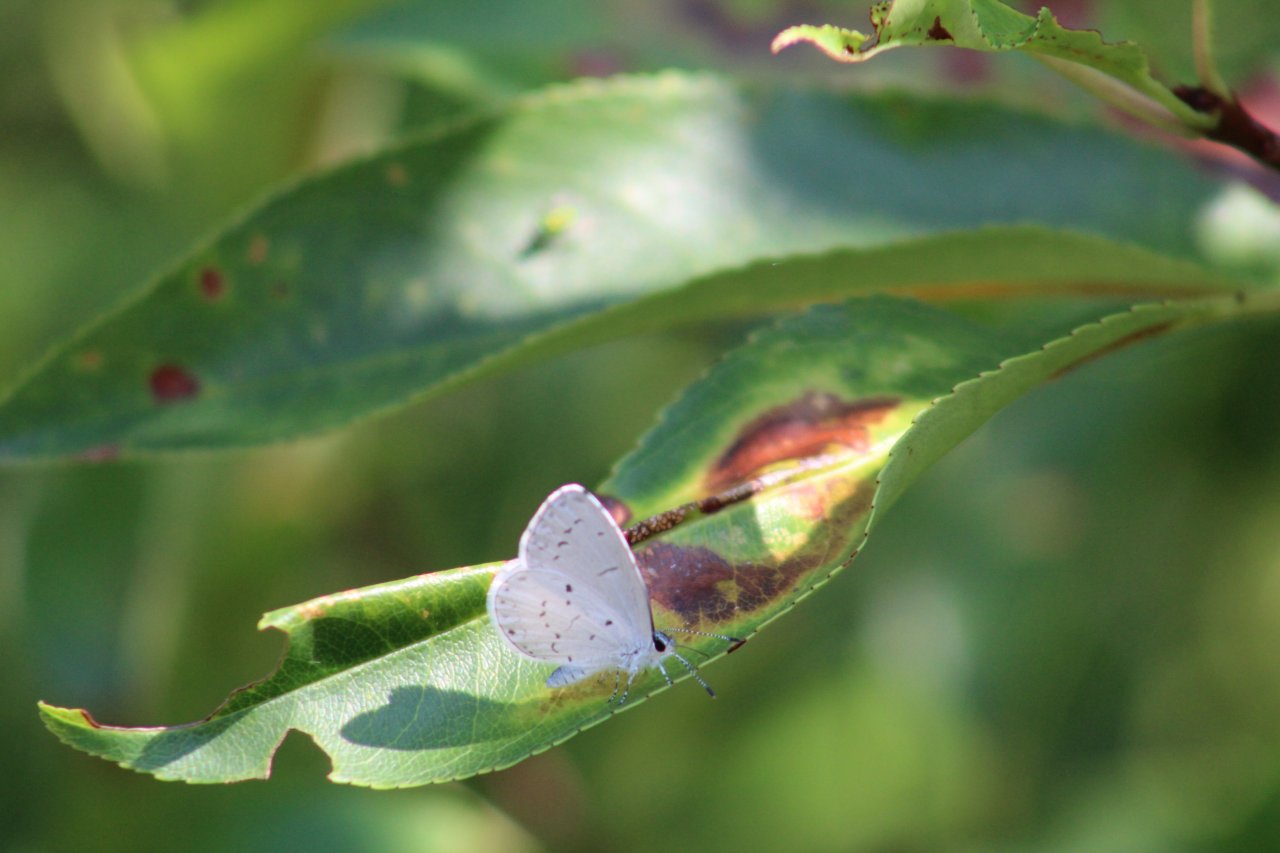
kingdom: Animalia
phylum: Arthropoda
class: Insecta
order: Lepidoptera
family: Lycaenidae
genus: Cyaniris
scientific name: Cyaniris neglecta
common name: Summer Azure
